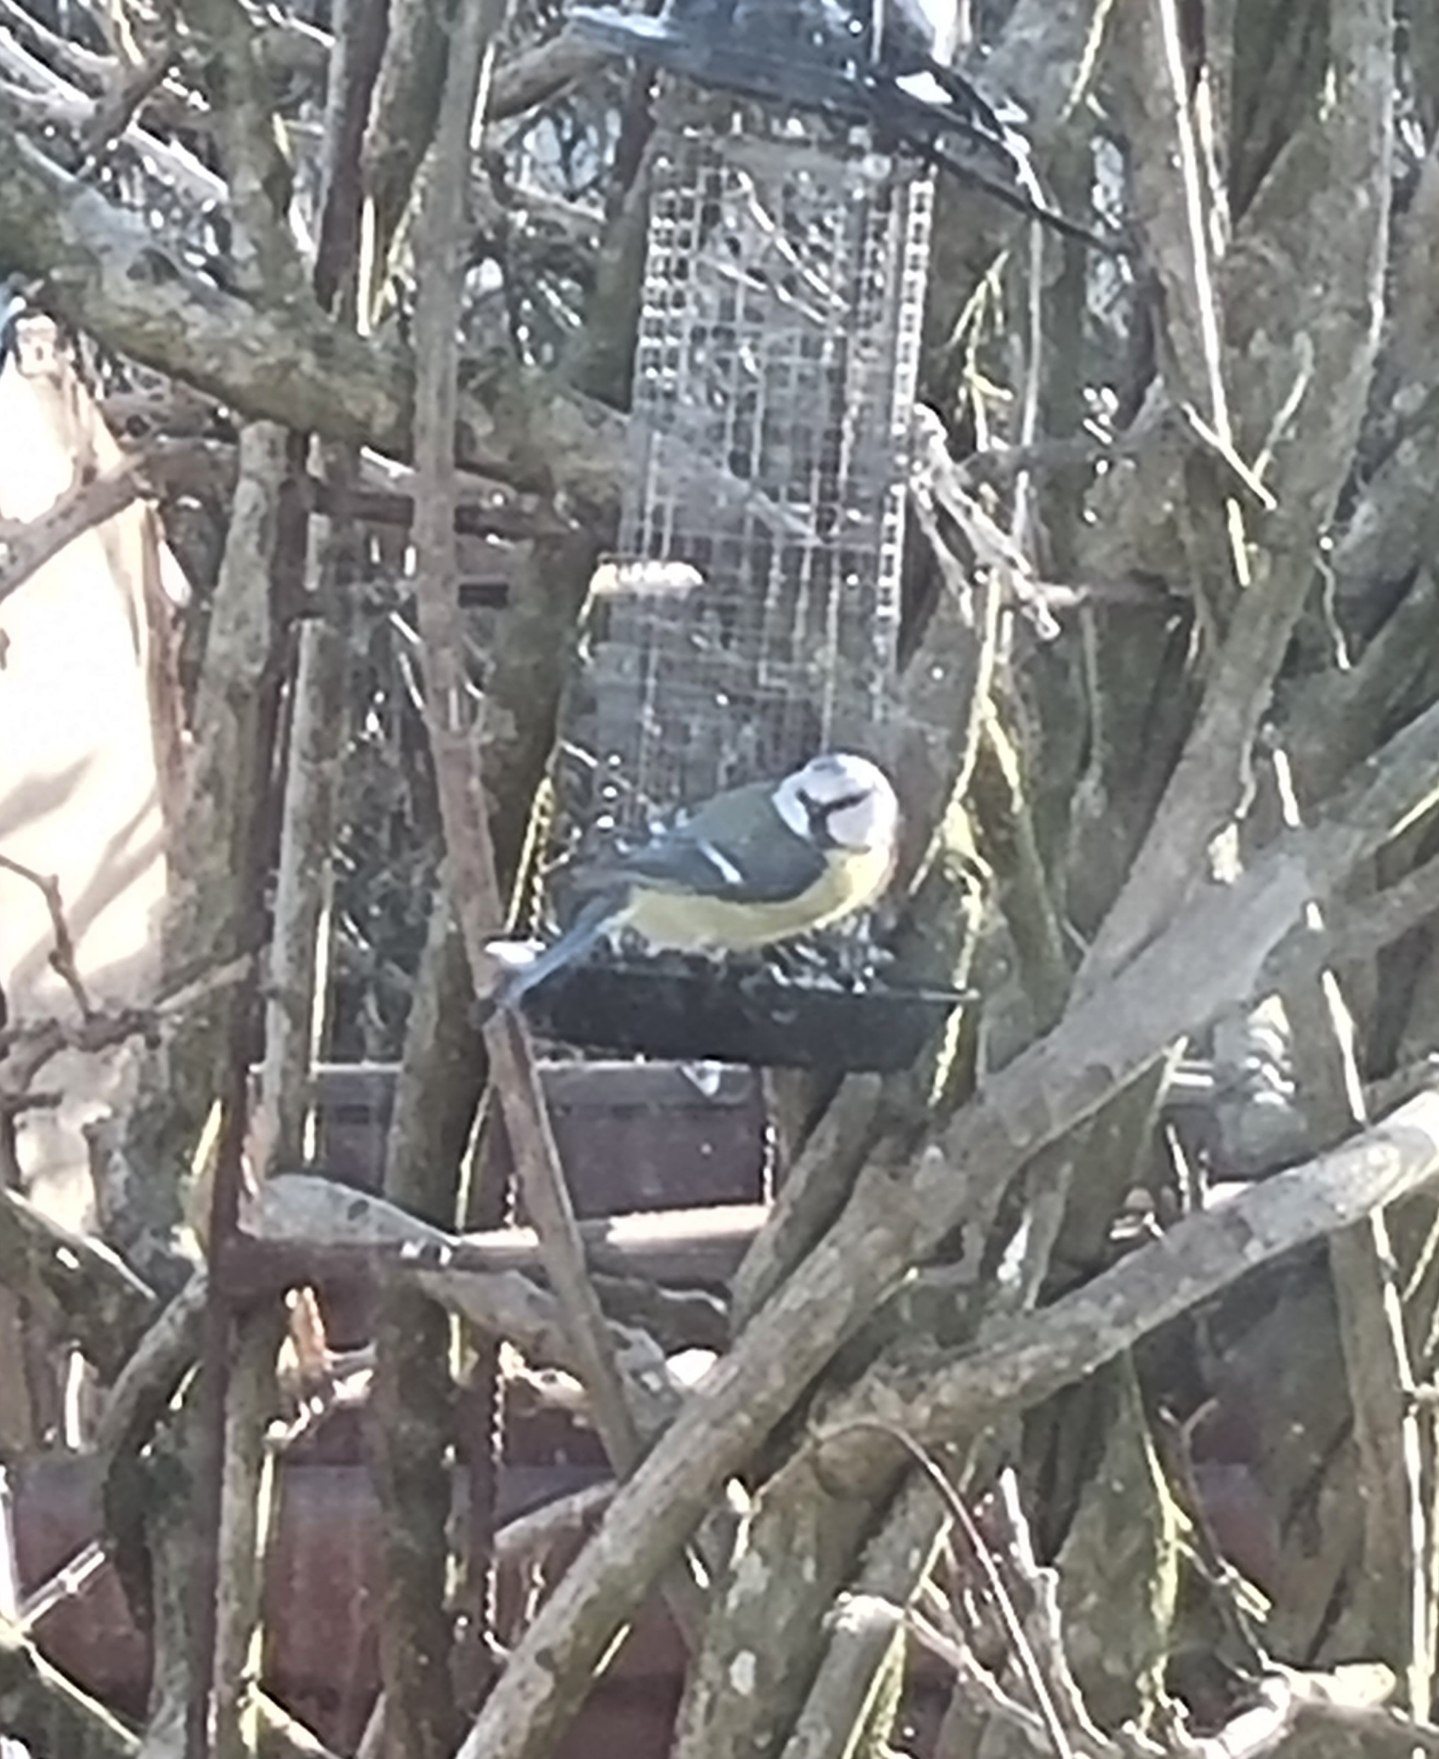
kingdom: Animalia
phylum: Chordata
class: Aves
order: Passeriformes
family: Paridae
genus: Cyanistes
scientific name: Cyanistes caeruleus
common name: Blåmejse
